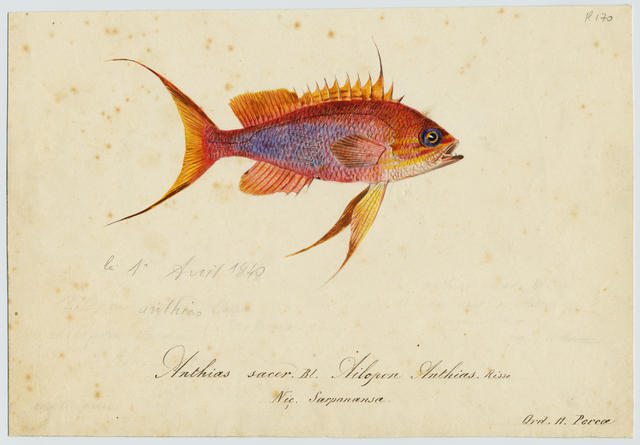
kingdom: Animalia
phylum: Chordata
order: Perciformes
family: Serranidae
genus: Anthias
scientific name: Anthias anthias
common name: Swallowtail seaperch
